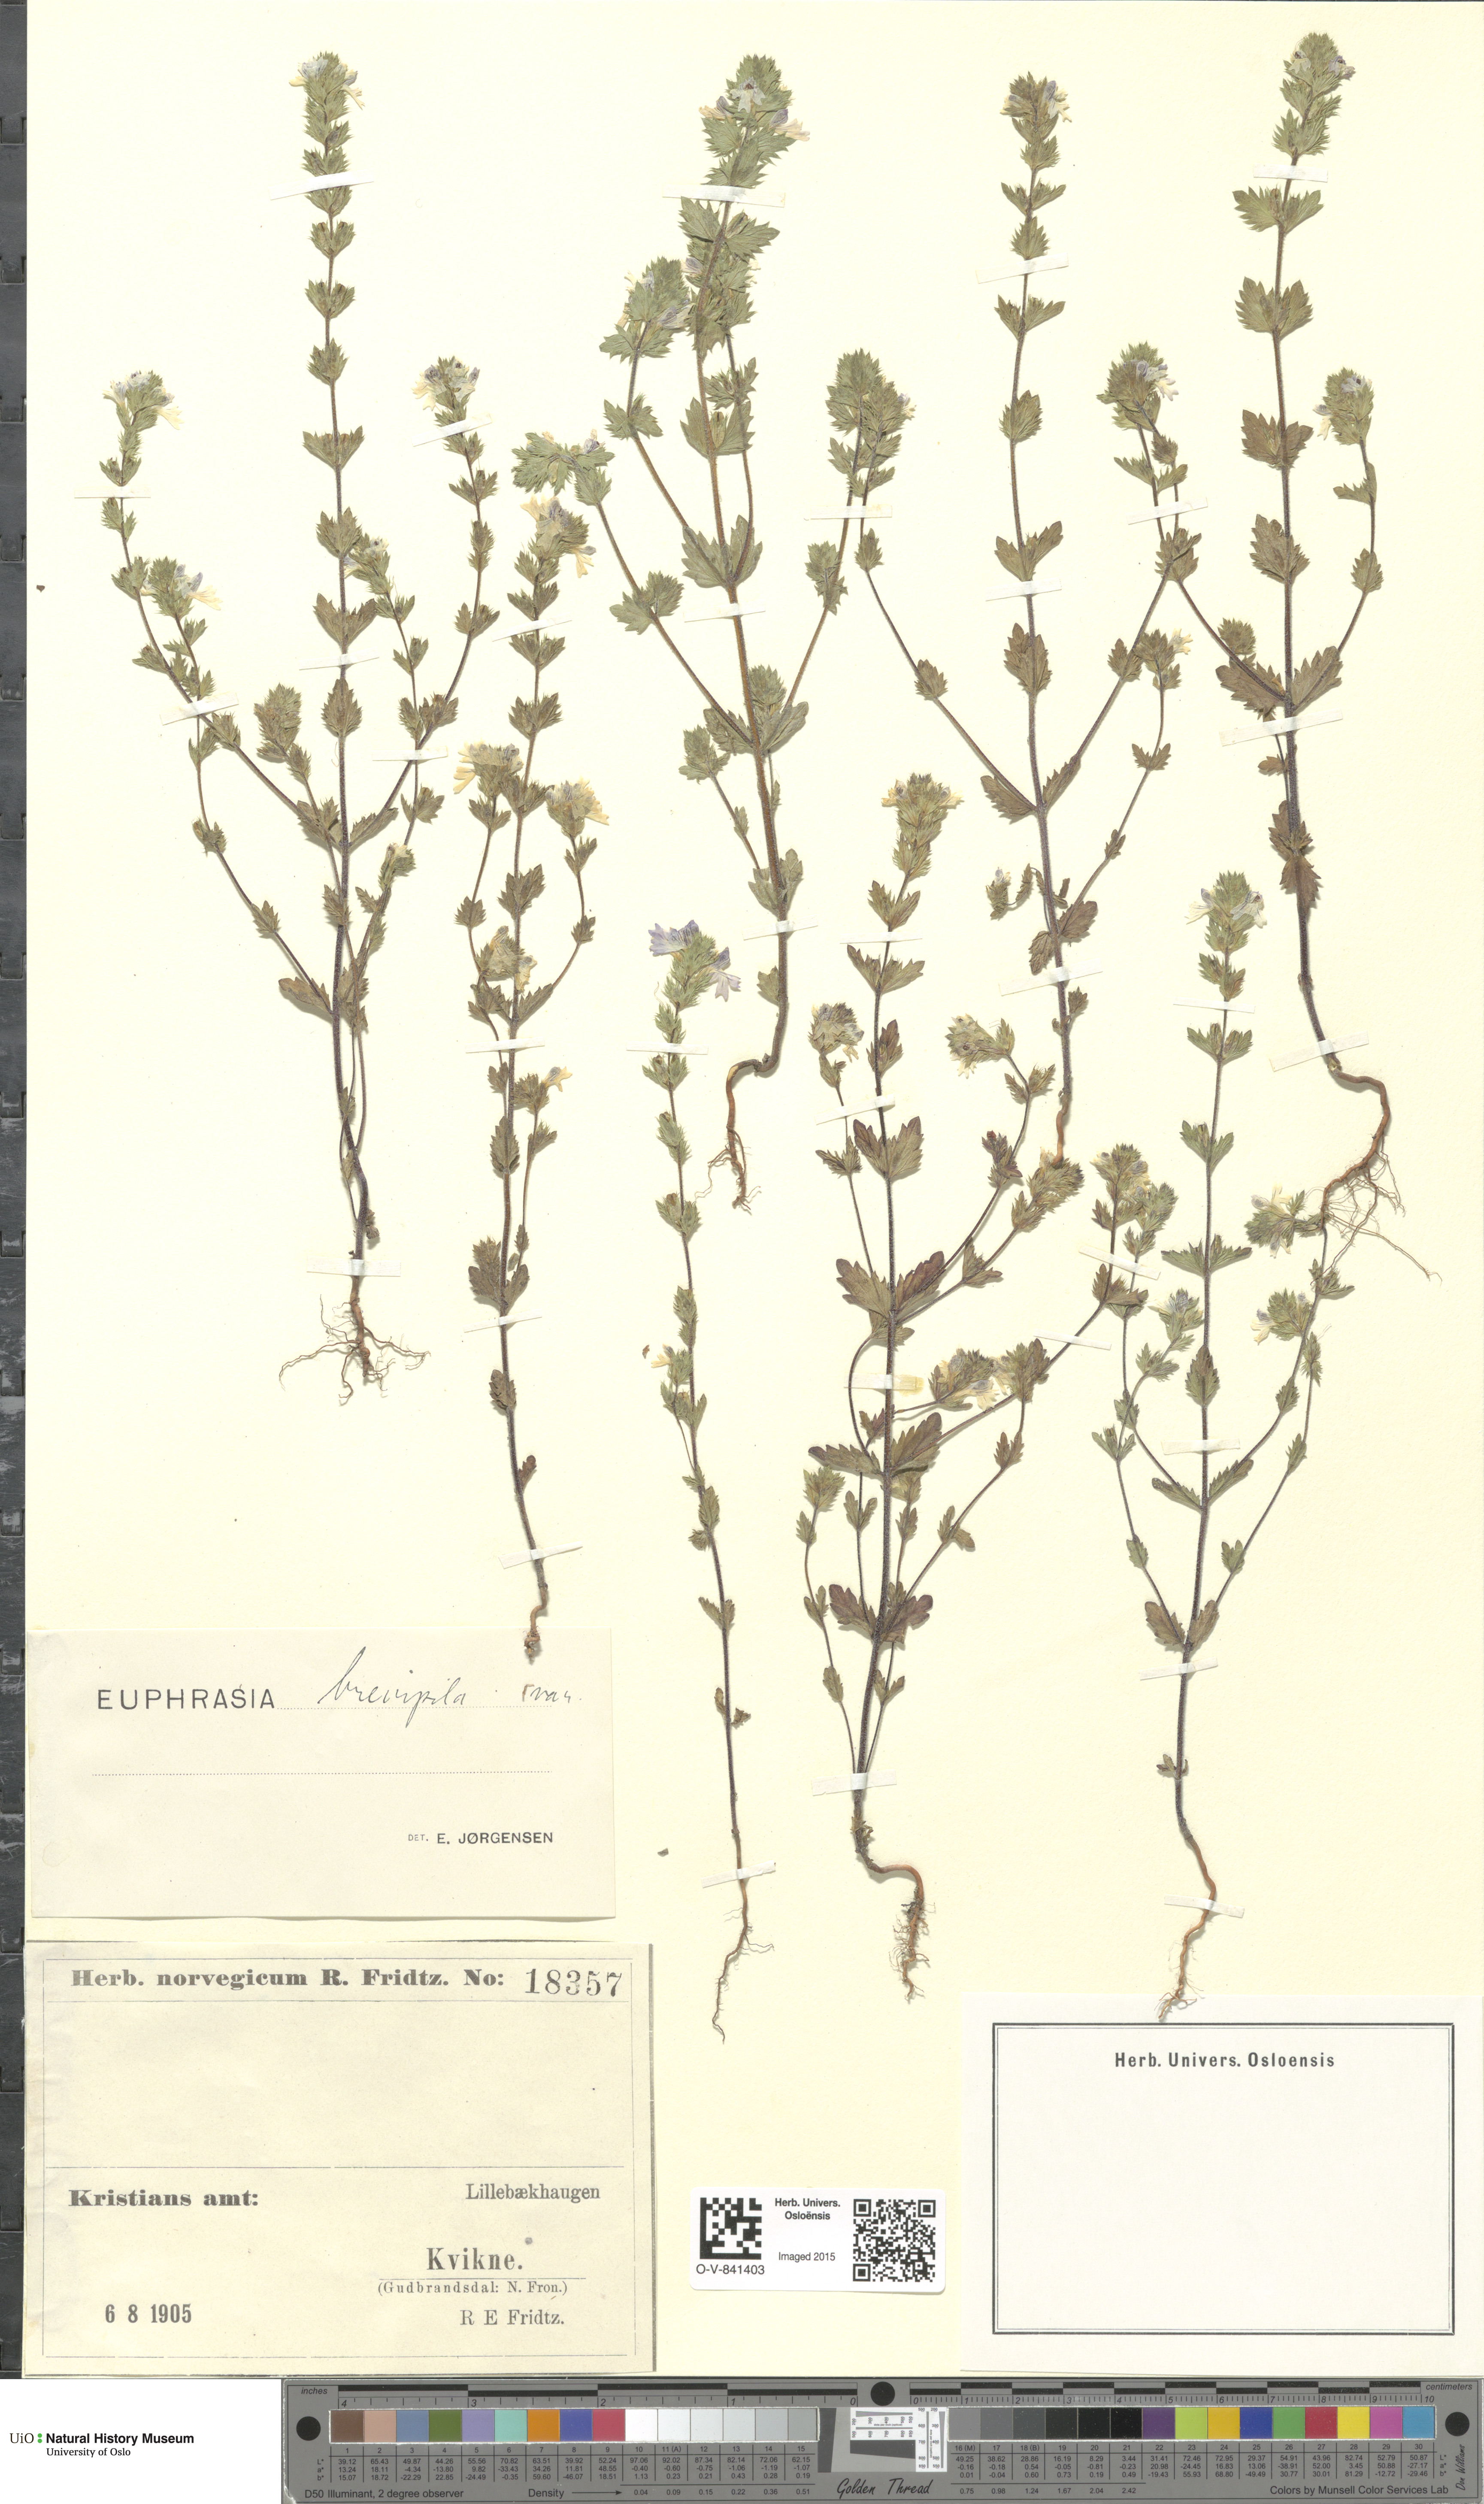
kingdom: Plantae
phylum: Tracheophyta
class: Magnoliopsida
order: Lamiales
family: Orobanchaceae
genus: Euphrasia
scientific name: Euphrasia vernalis
